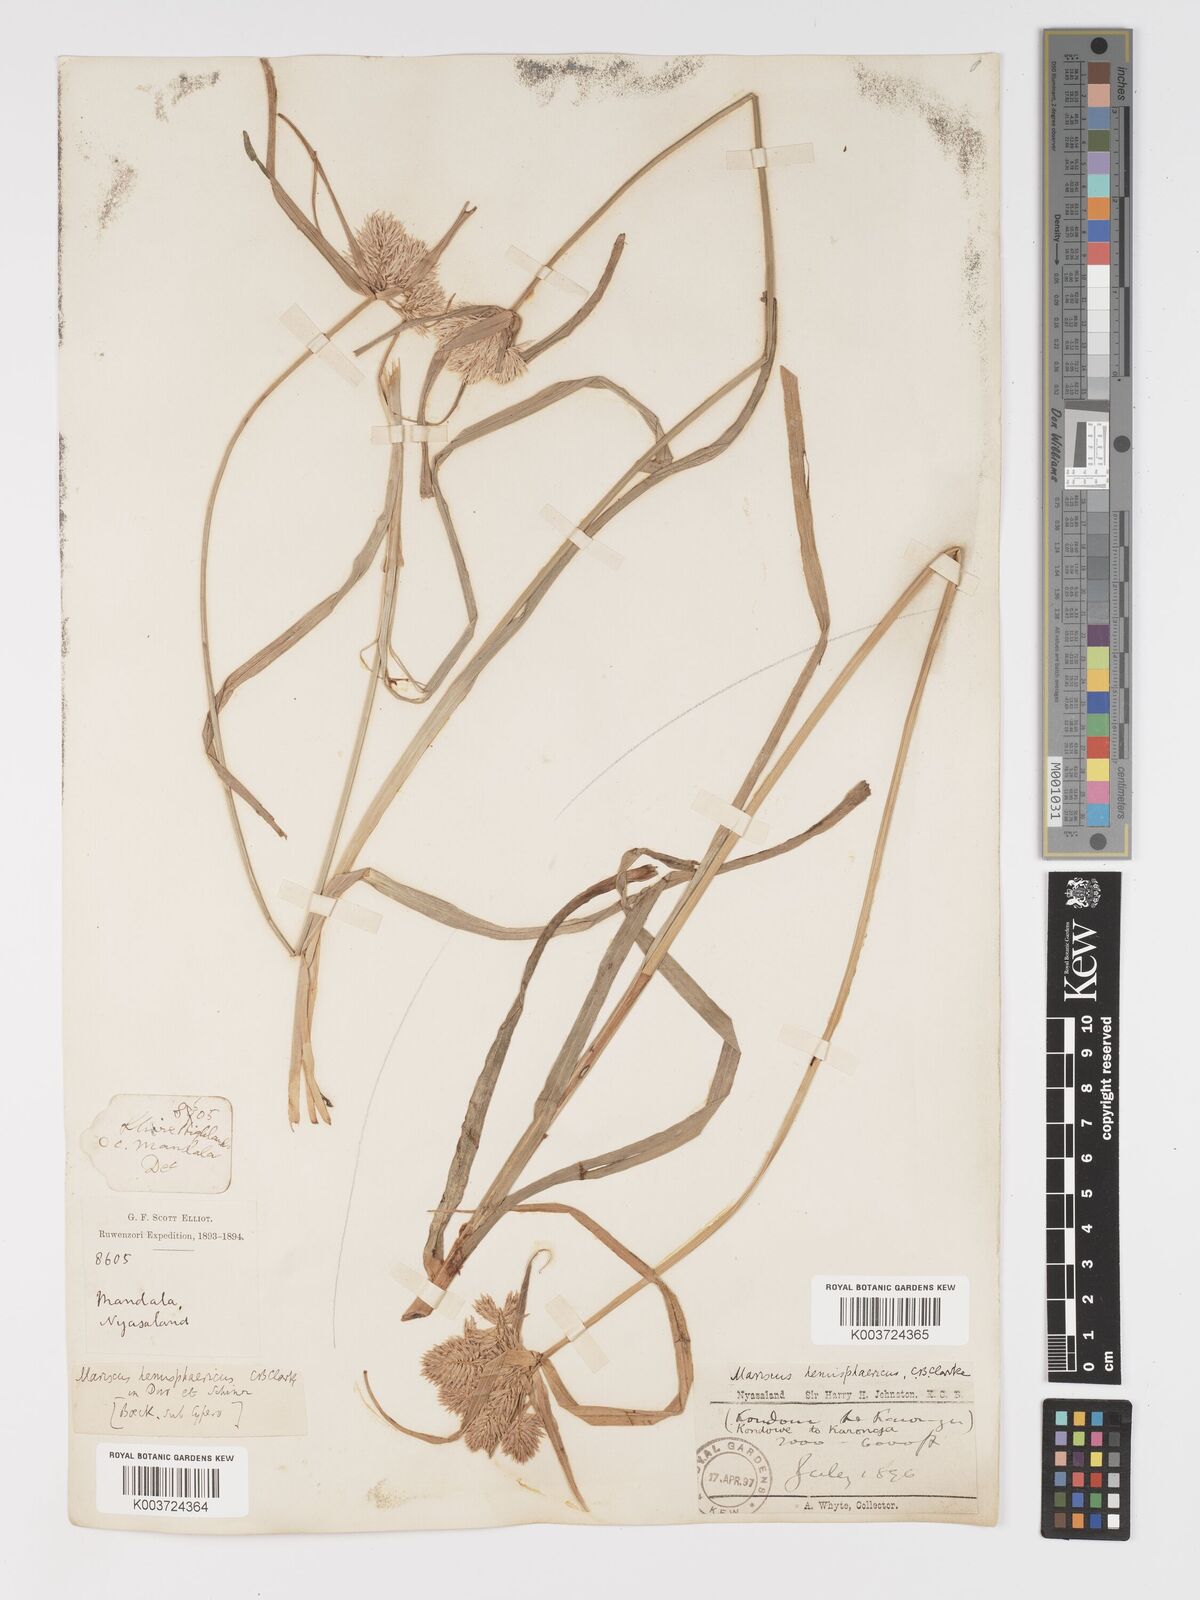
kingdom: Plantae
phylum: Tracheophyta
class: Liliopsida
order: Poales
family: Cyperaceae
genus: Cyperus
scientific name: Cyperus hemisphaericus
